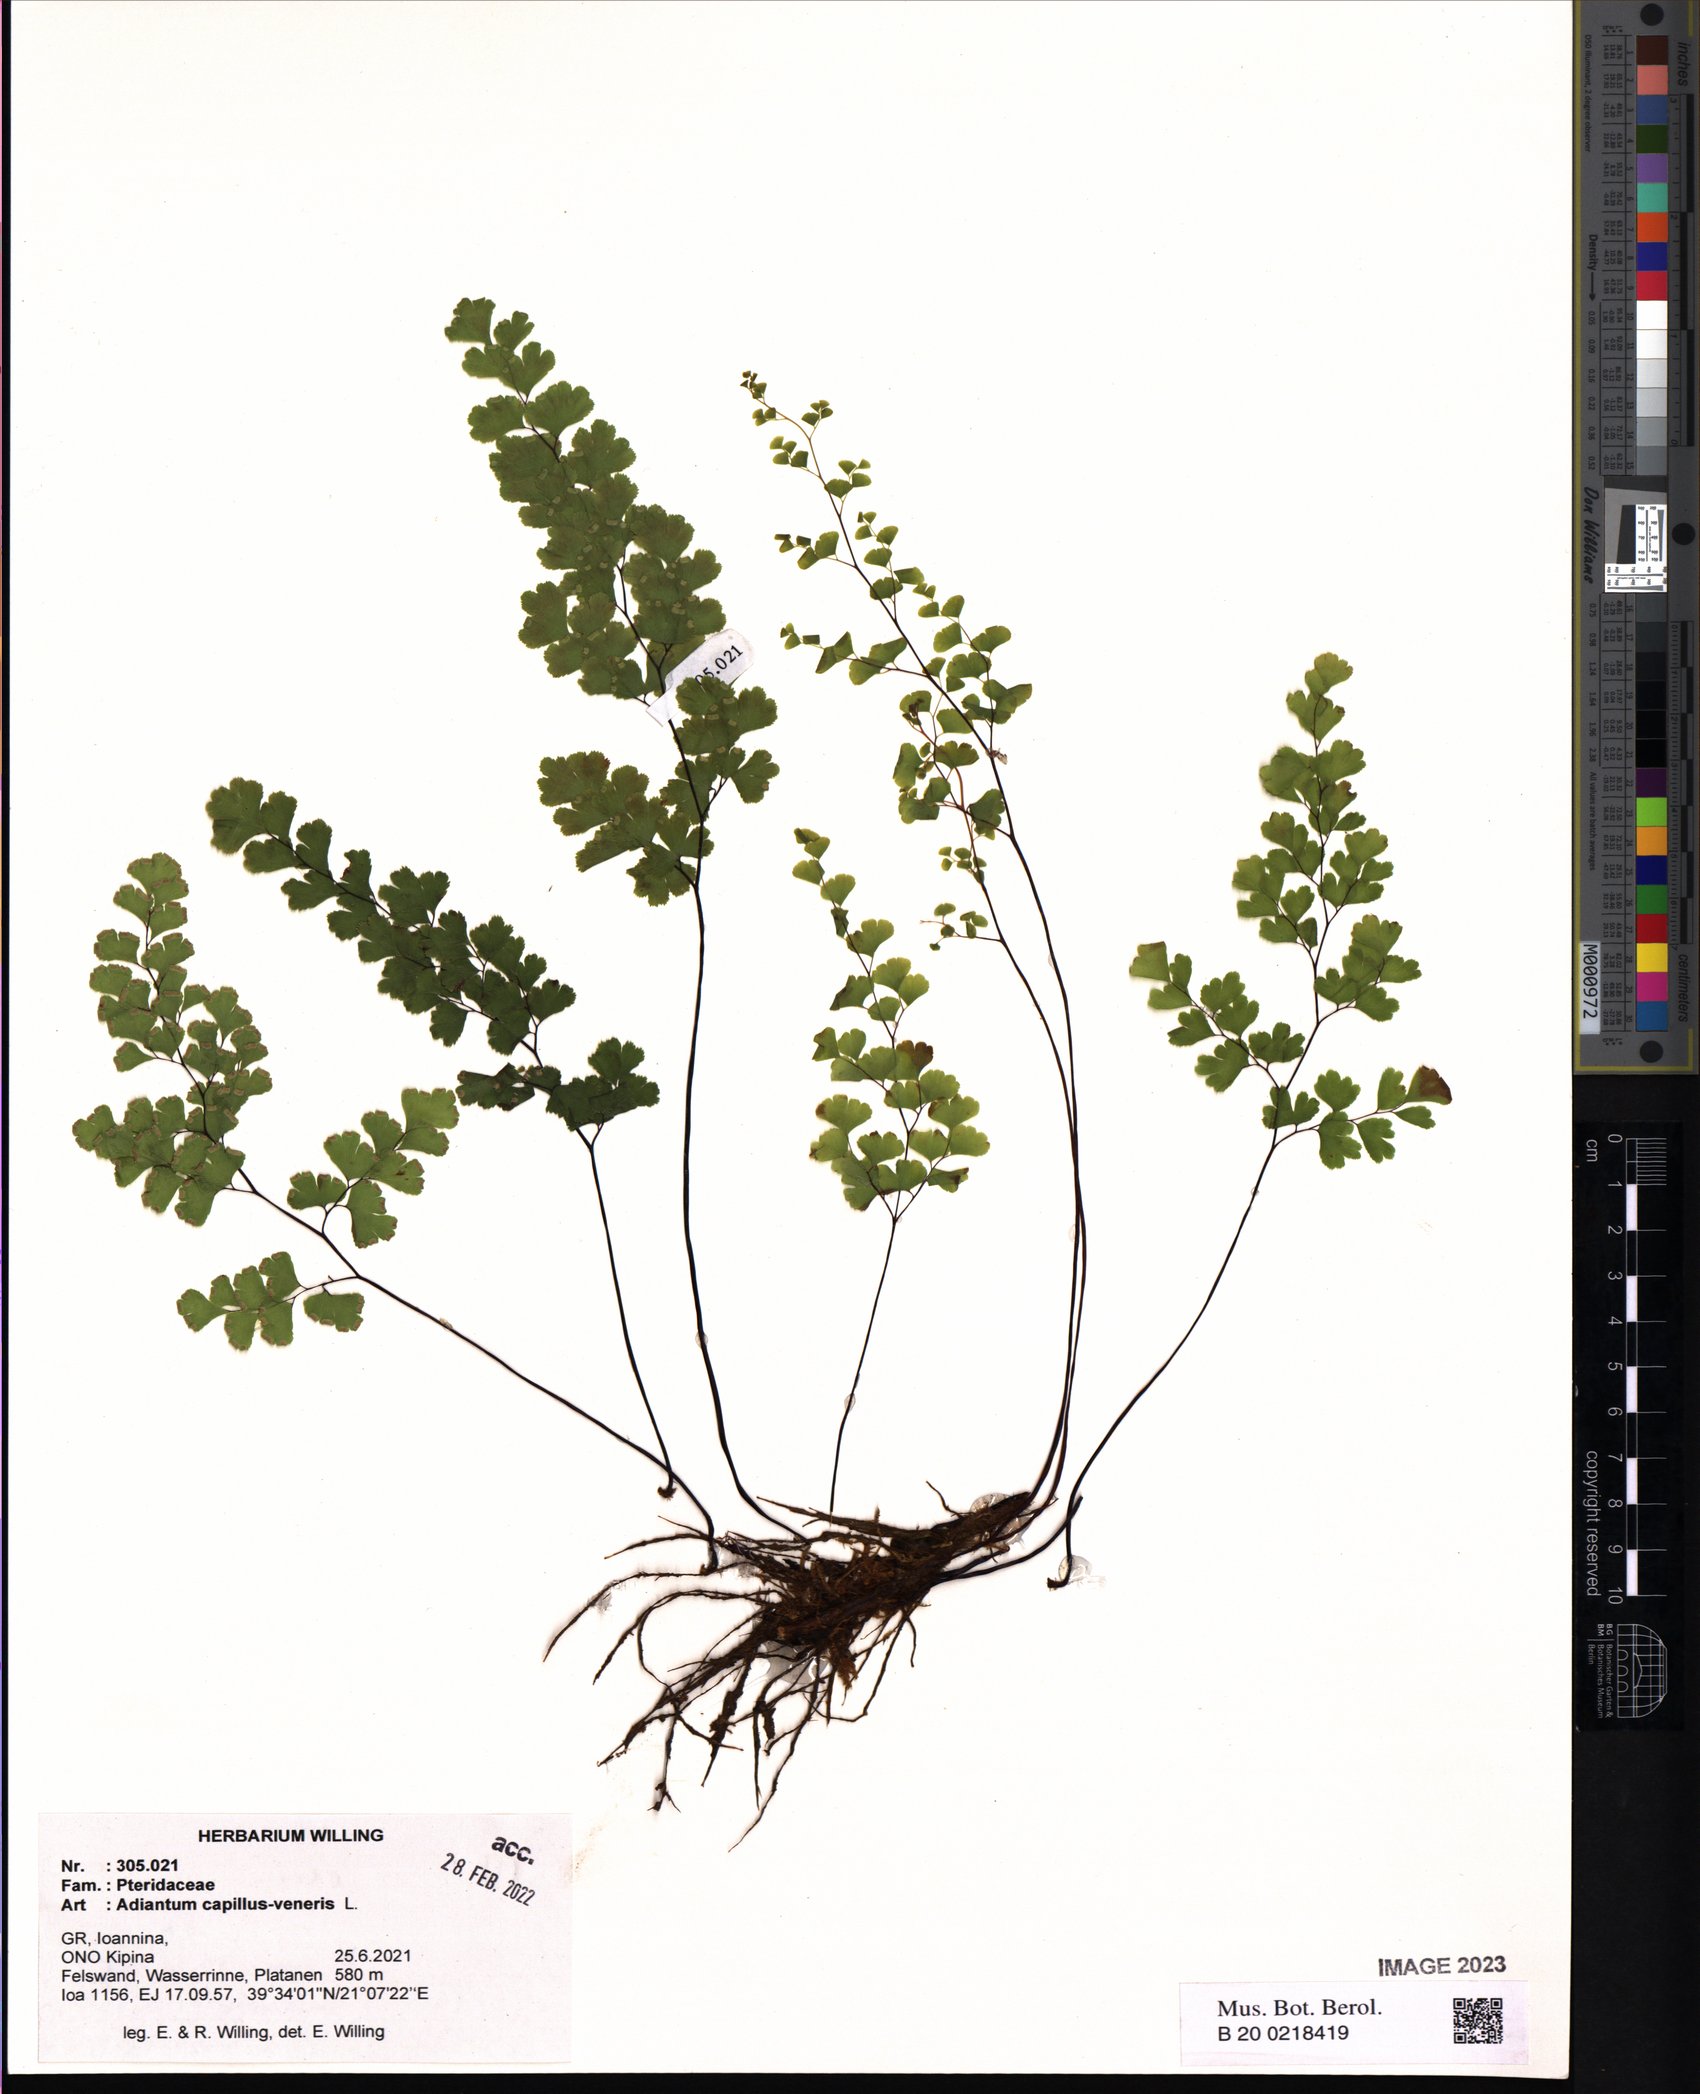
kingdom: Plantae
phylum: Tracheophyta
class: Polypodiopsida
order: Polypodiales
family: Pteridaceae
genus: Adiantum
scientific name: Adiantum capillus-veneris
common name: Maidenhair fern
